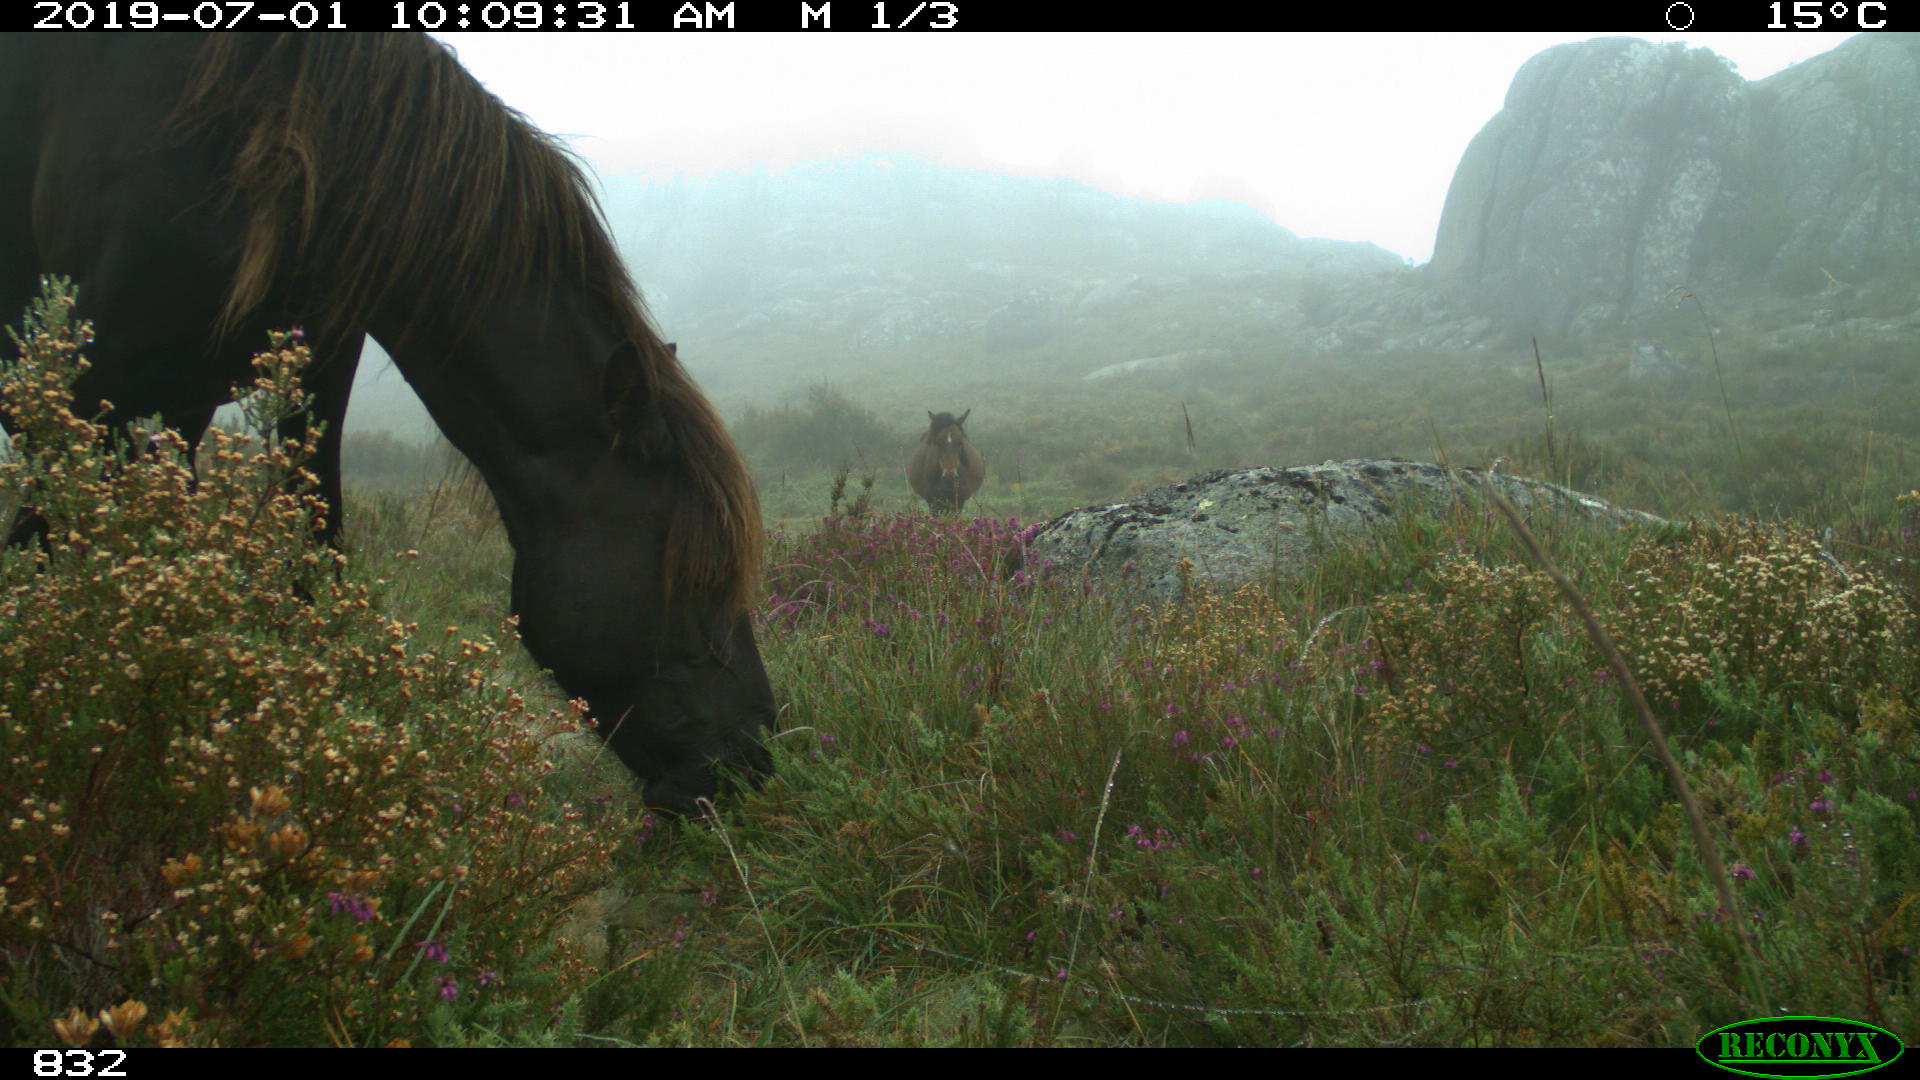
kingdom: Animalia
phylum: Chordata
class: Mammalia
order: Perissodactyla
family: Equidae
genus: Equus
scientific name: Equus caballus
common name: Horse
